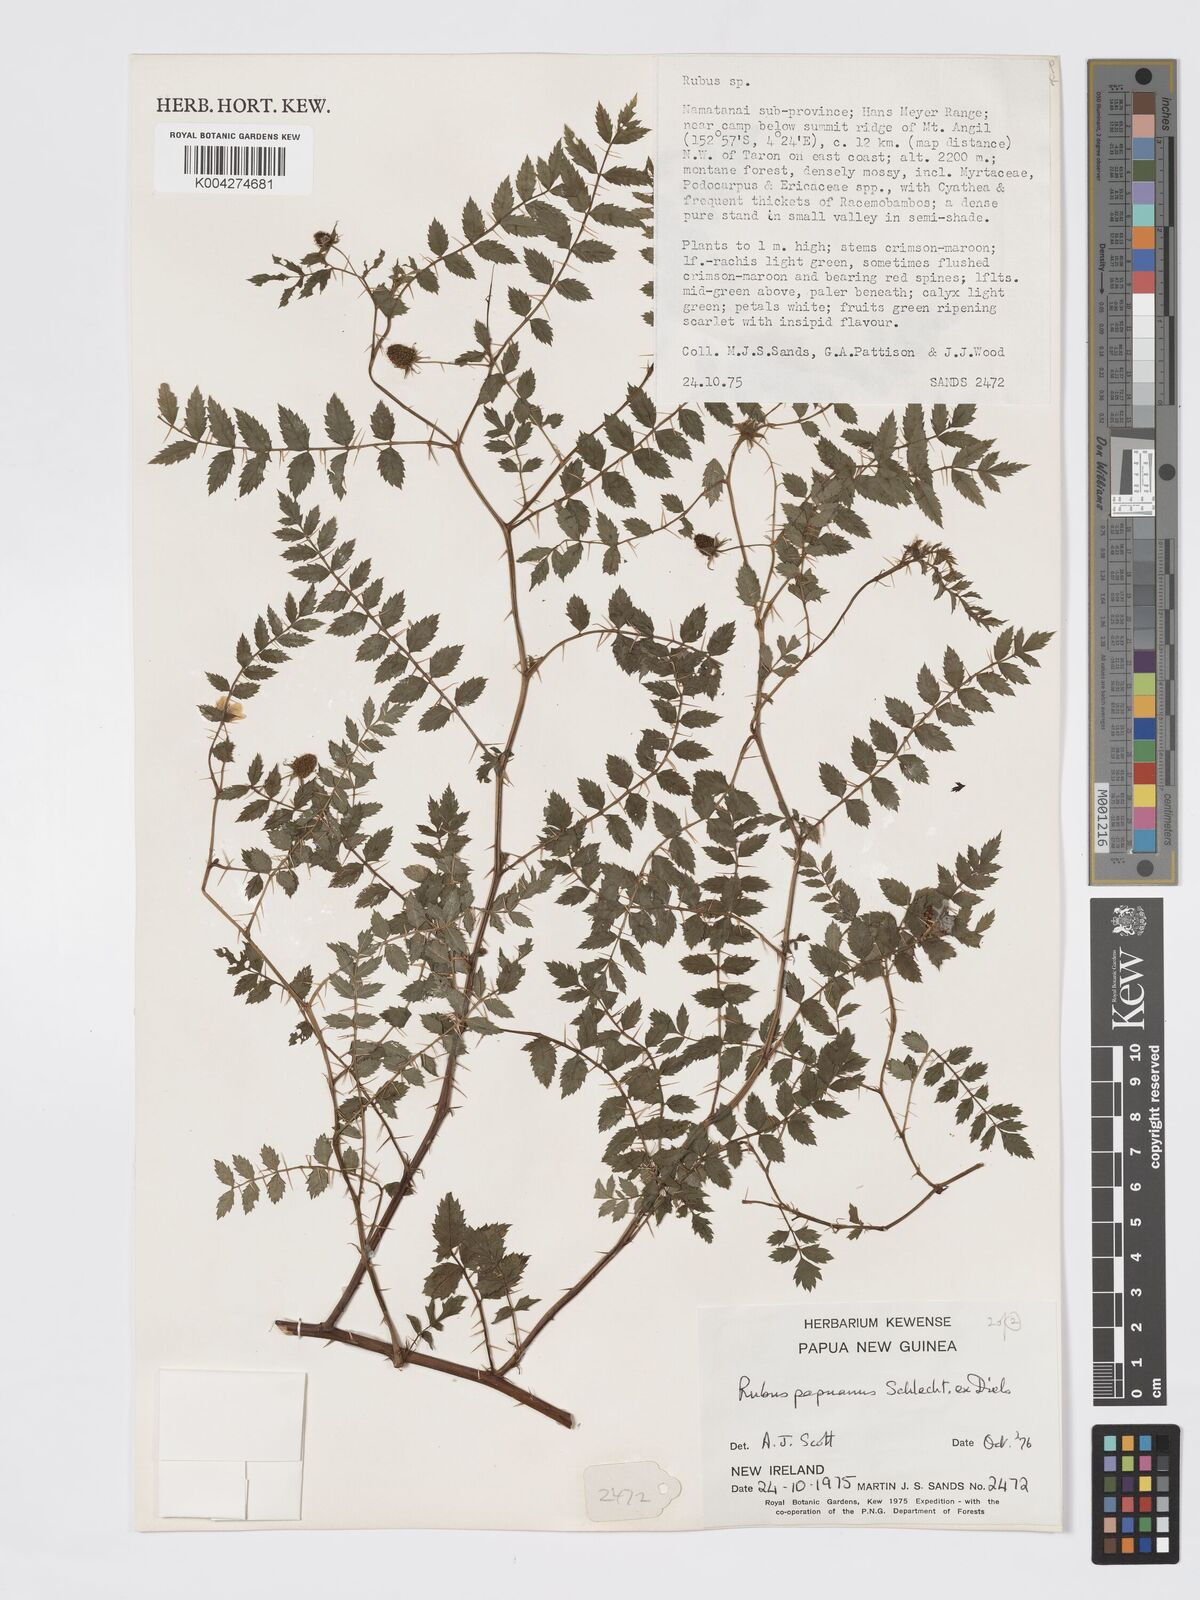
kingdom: Plantae
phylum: Tracheophyta
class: Magnoliopsida
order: Rosales
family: Rosaceae
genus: Rubus
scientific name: Rubus papuanus
